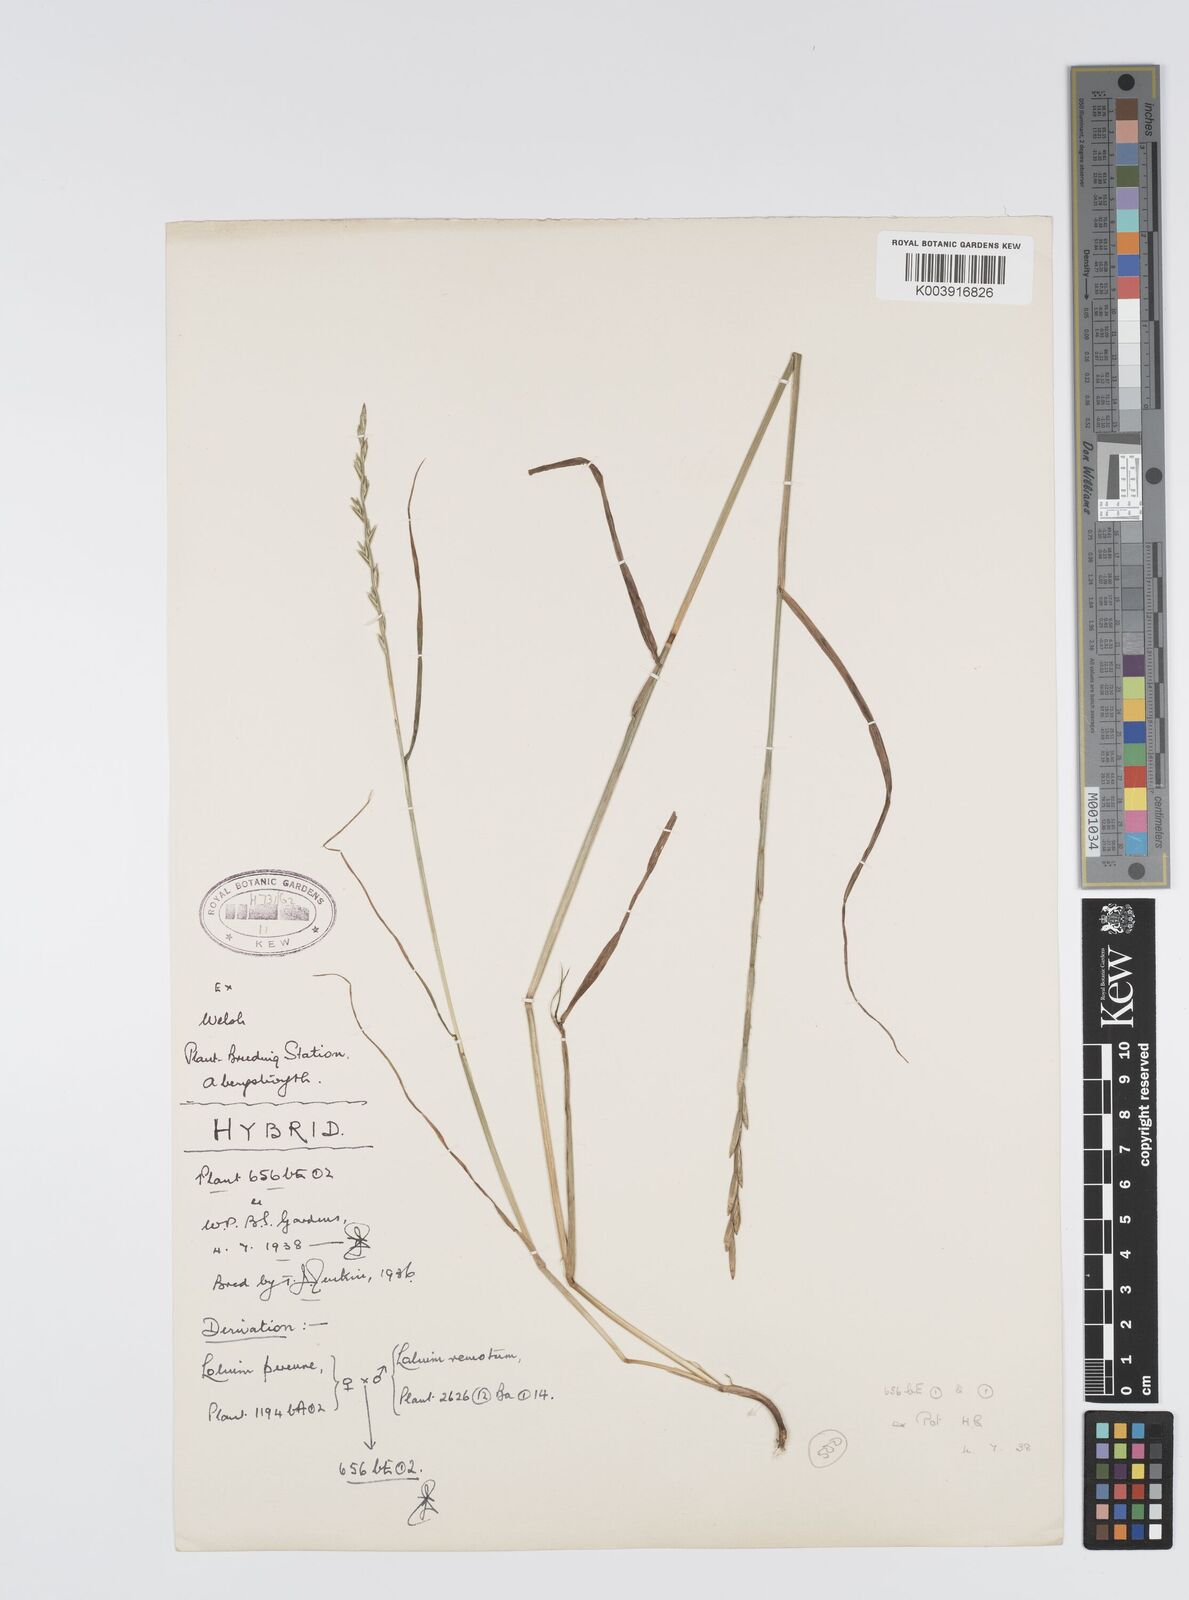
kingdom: Plantae
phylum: Tracheophyta
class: Liliopsida
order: Poales
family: Poaceae
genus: Lolium
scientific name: Lolium perenne
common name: Perennial ryegrass
